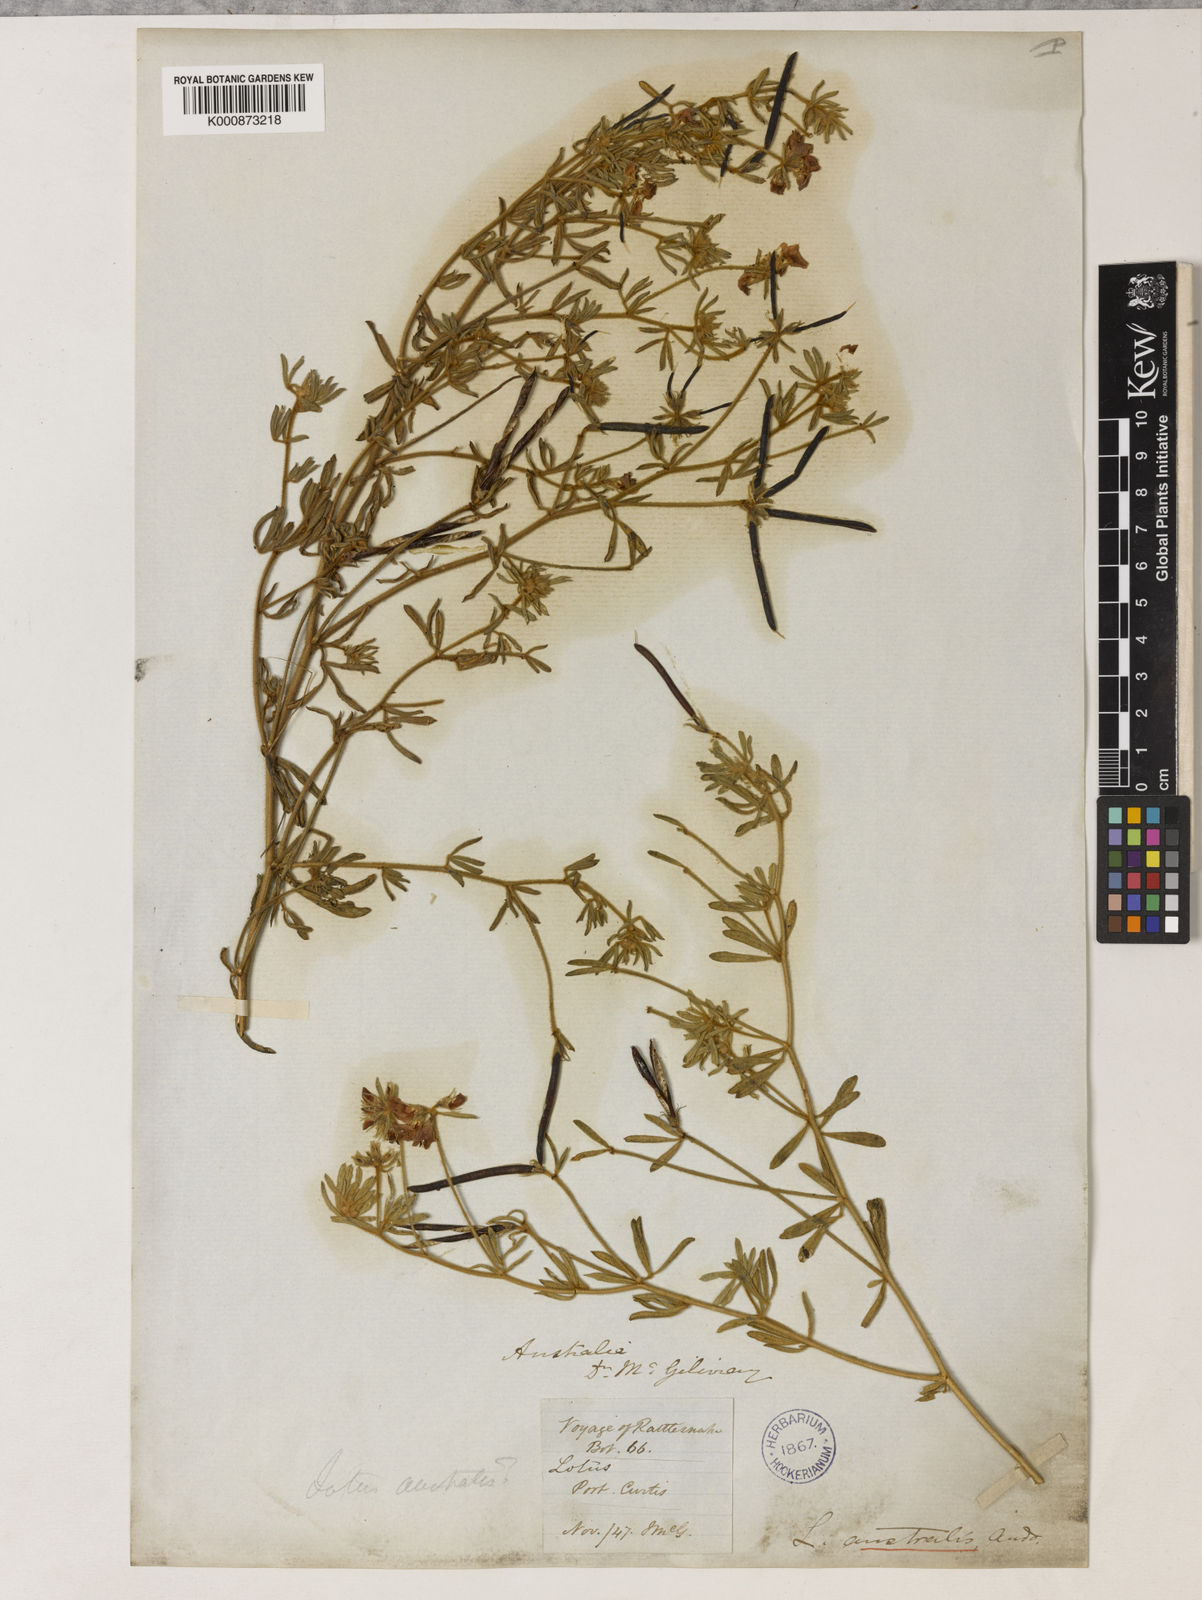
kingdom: Plantae
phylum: Tracheophyta
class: Magnoliopsida
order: Fabales
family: Fabaceae
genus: Lotus
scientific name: Lotus australis
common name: Australian trefoil
